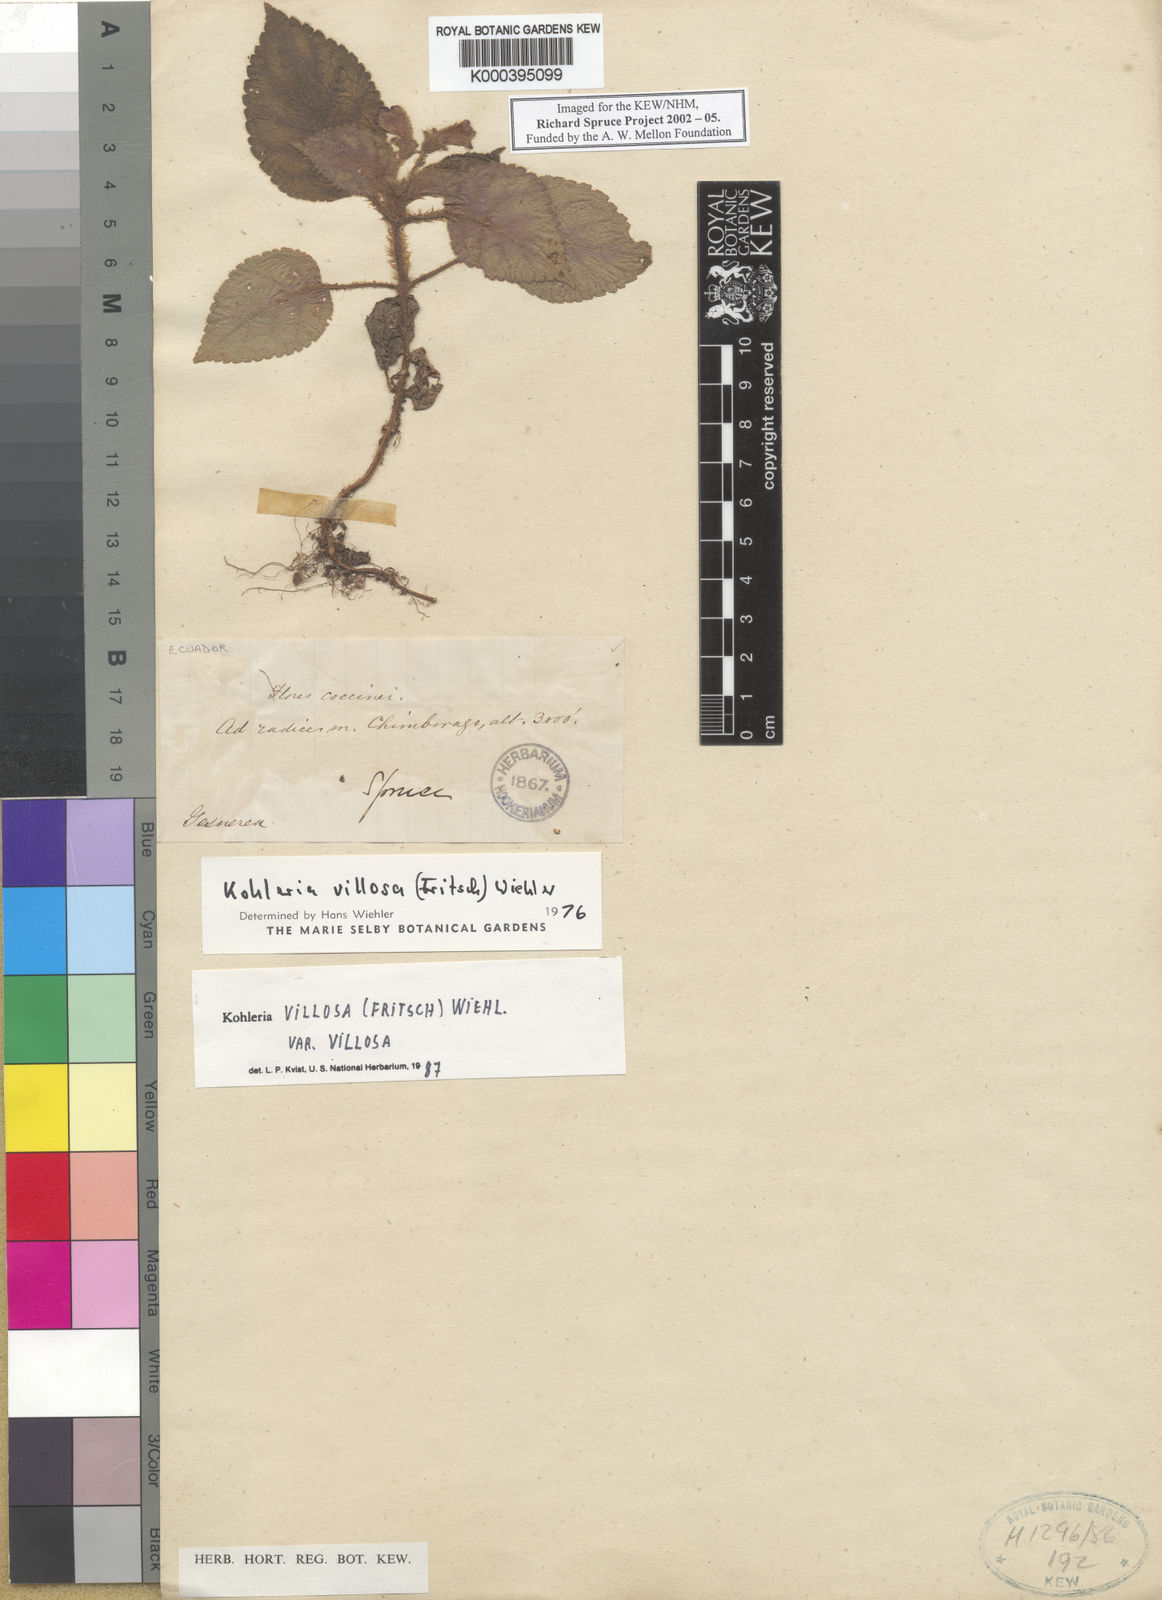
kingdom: Plantae
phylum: Tracheophyta
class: Magnoliopsida
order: Lamiales
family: Gesneriaceae
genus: Kohleria
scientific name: Kohleria villosa
